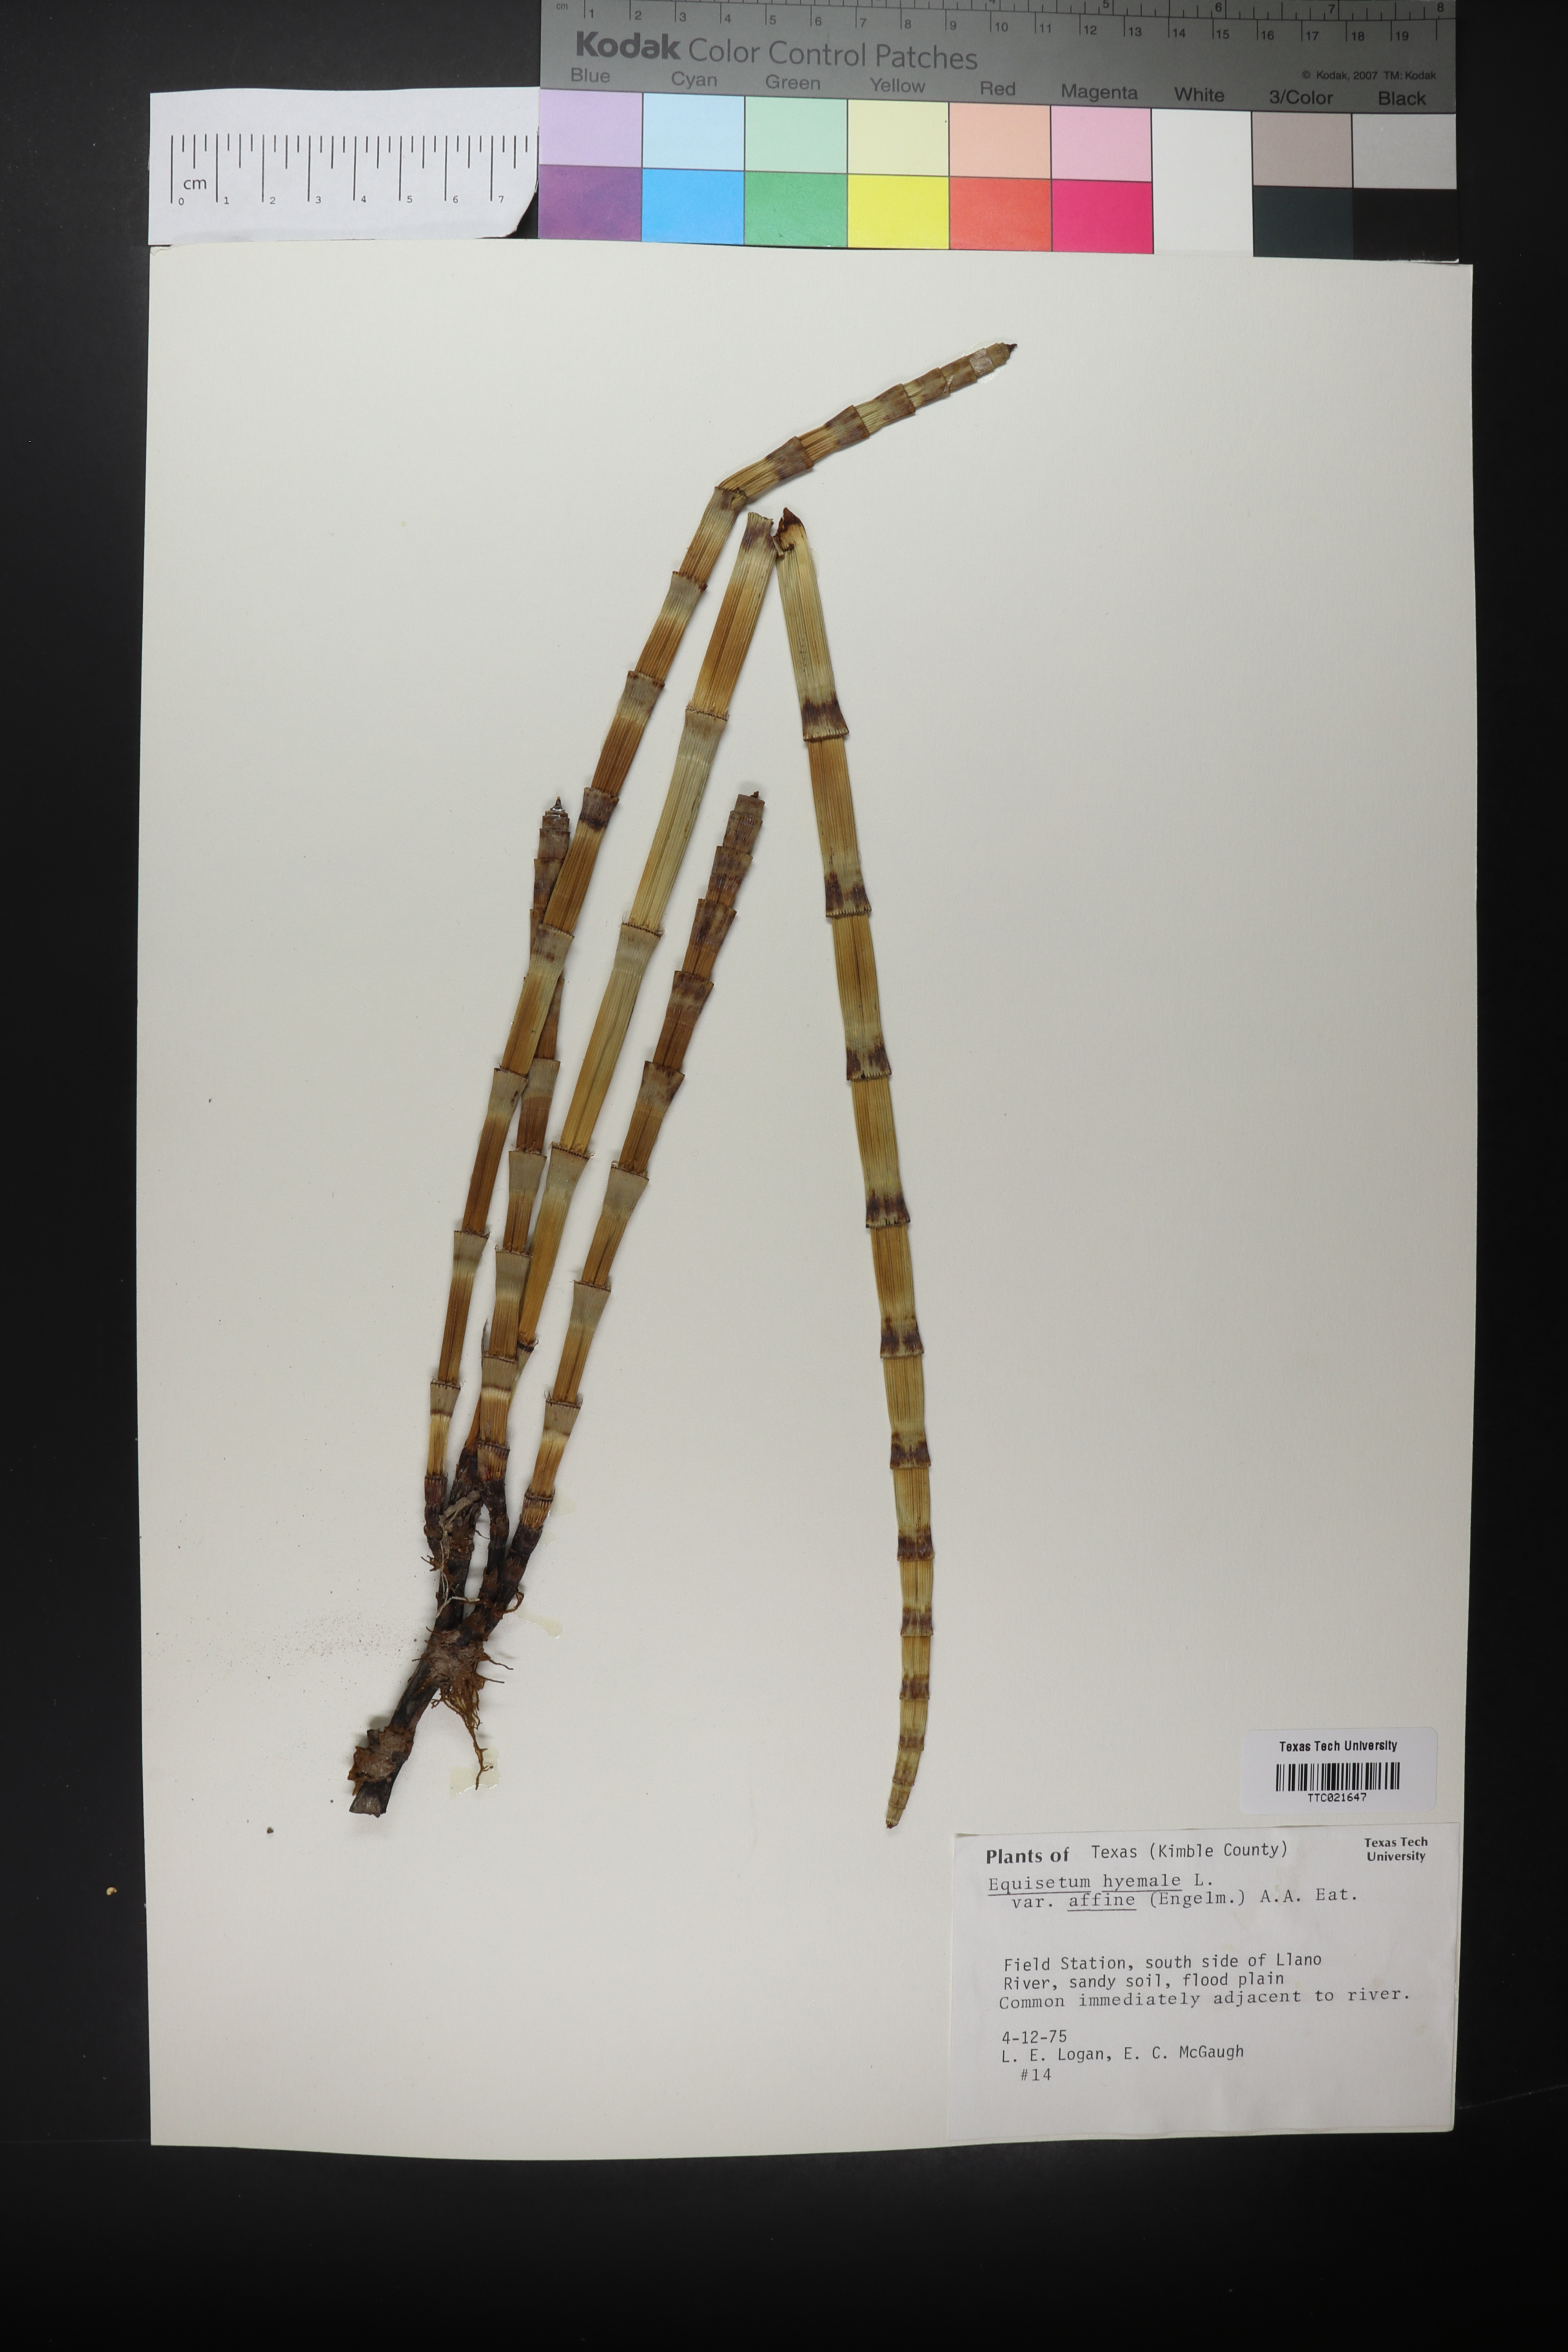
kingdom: Plantae
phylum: Tracheophyta
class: Polypodiopsida
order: Equisetales
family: Equisetaceae
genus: Equisetum
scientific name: Equisetum praealtum
